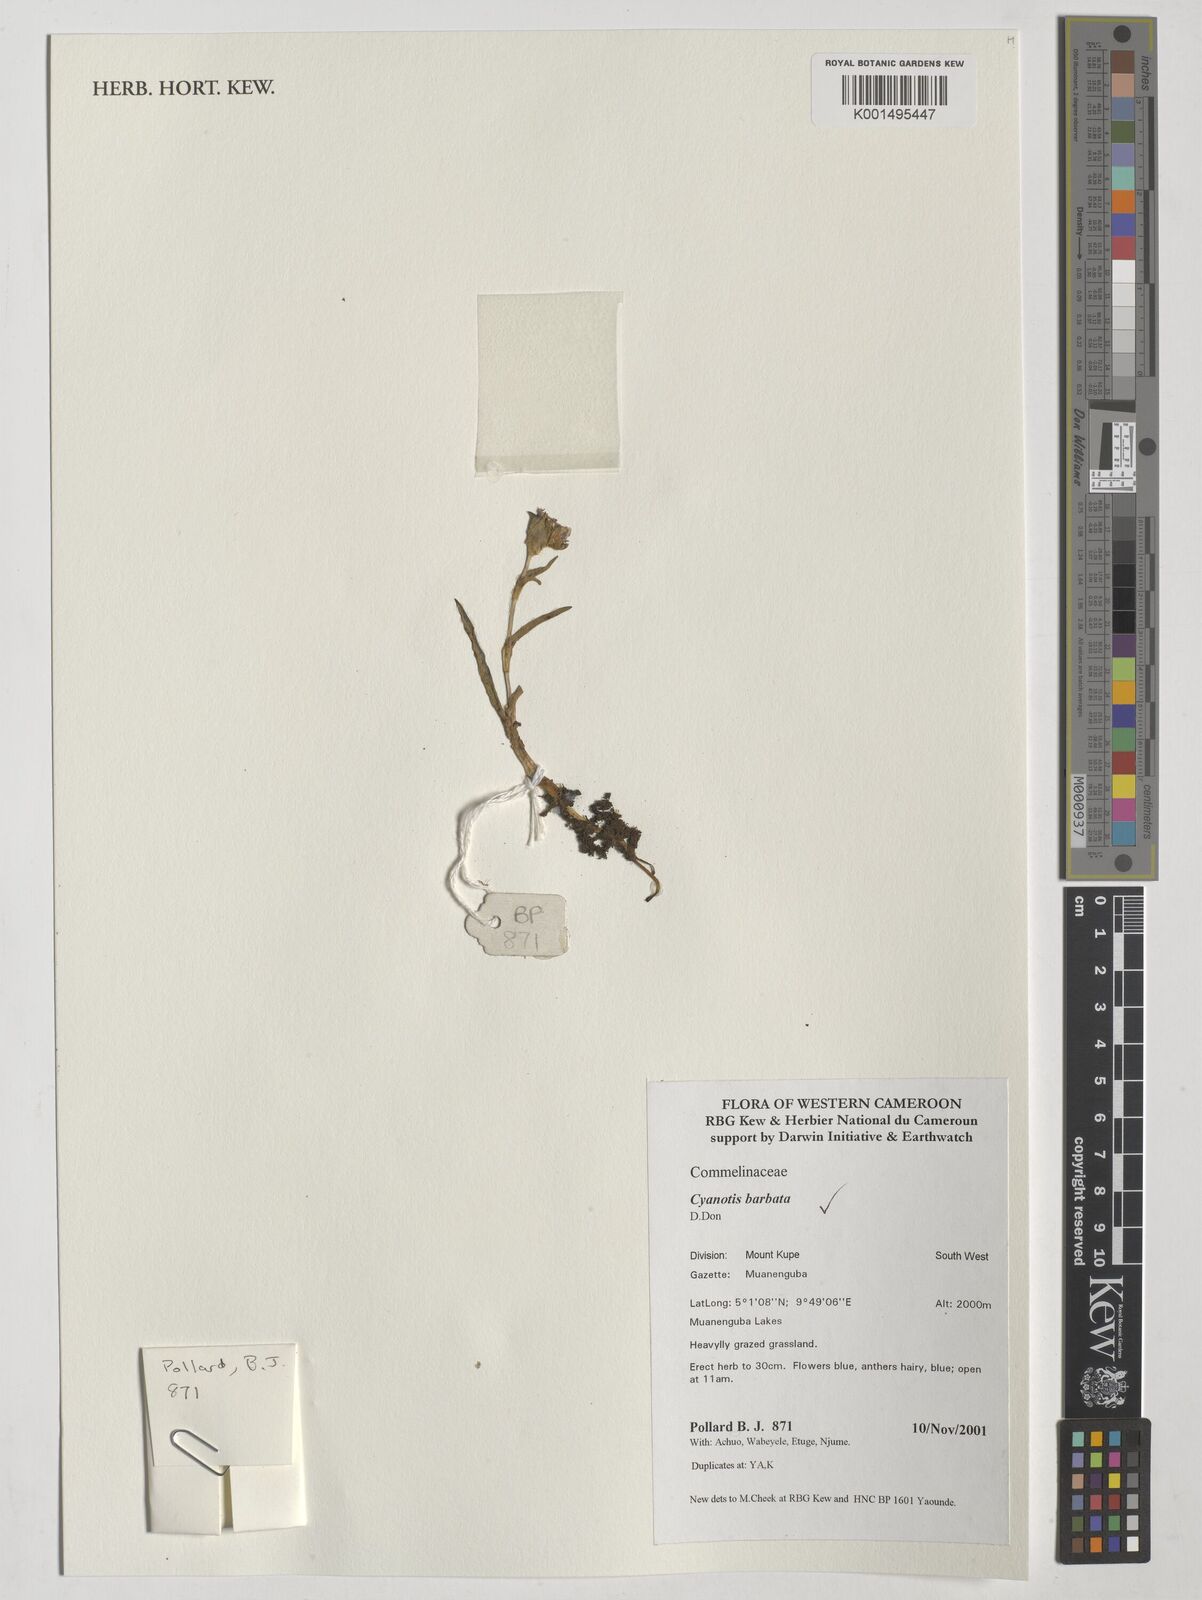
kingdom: Plantae
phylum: Tracheophyta
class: Liliopsida
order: Commelinales
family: Commelinaceae
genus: Cyanotis
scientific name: Cyanotis vaga
